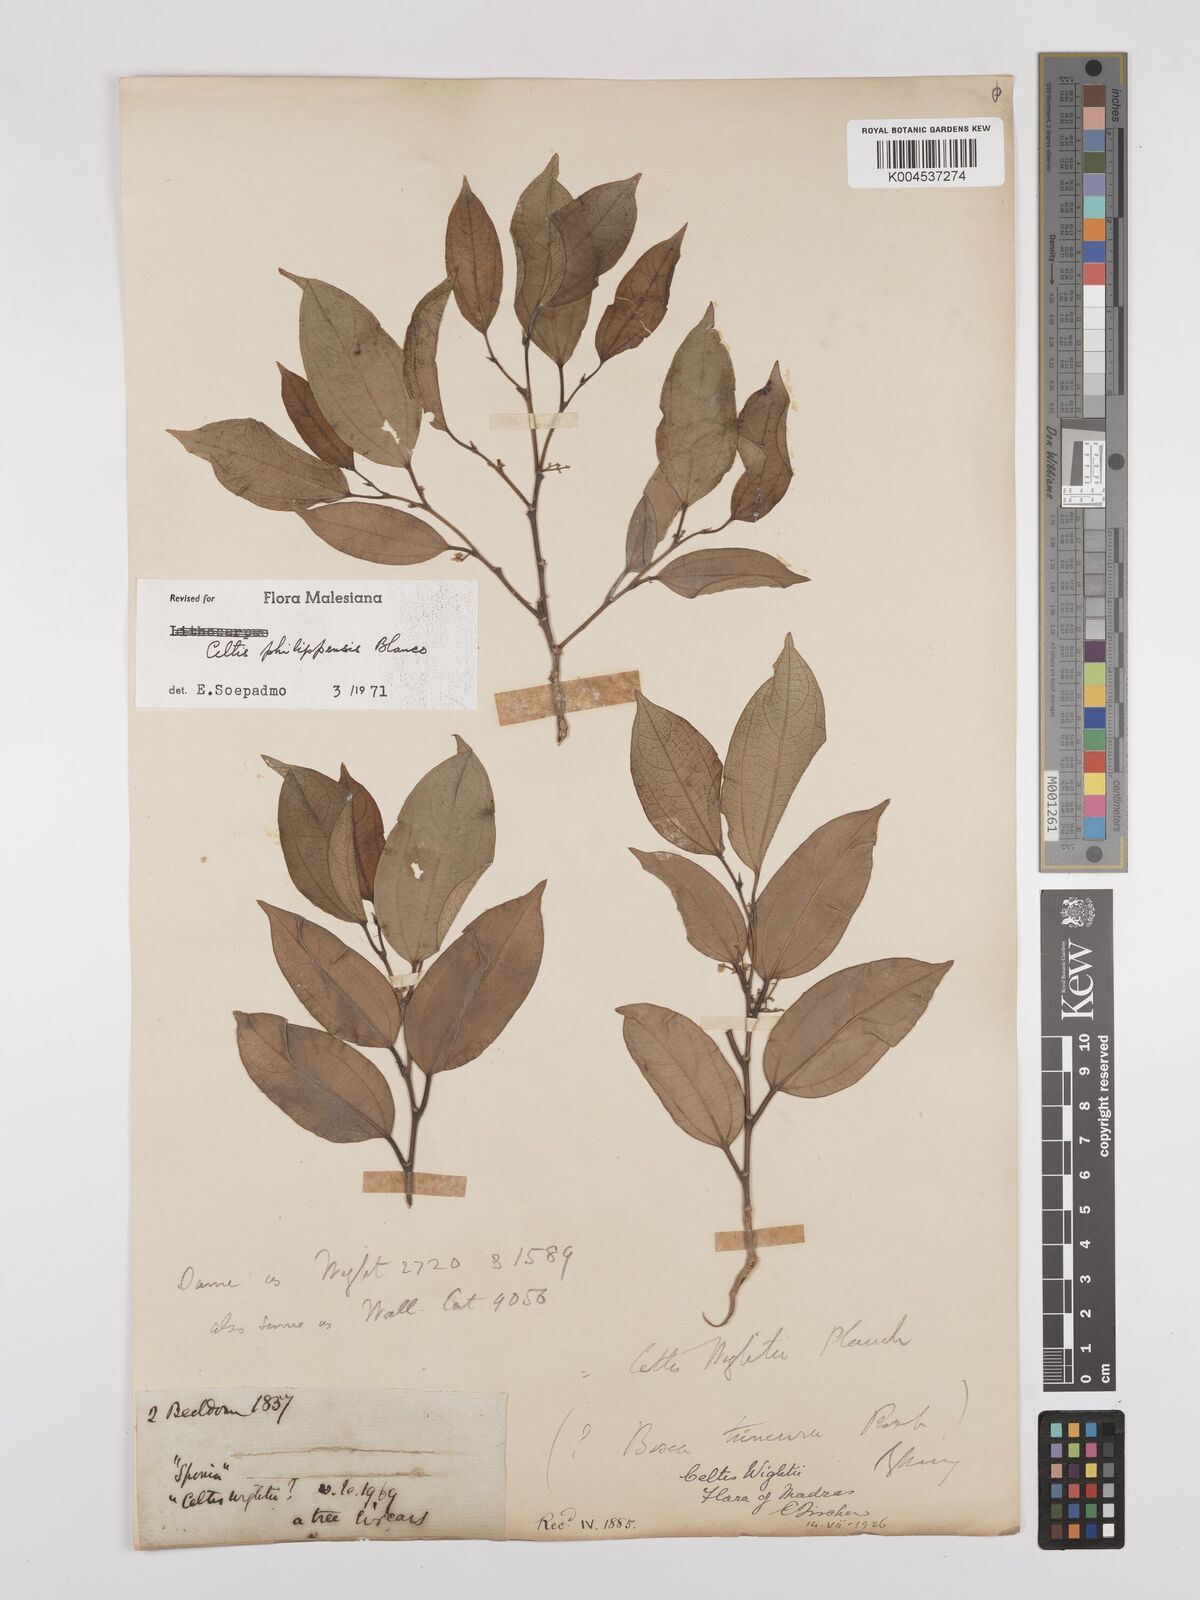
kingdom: Plantae
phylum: Tracheophyta
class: Magnoliopsida
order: Rosales
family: Cannabaceae
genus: Celtis
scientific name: Celtis philippensis
